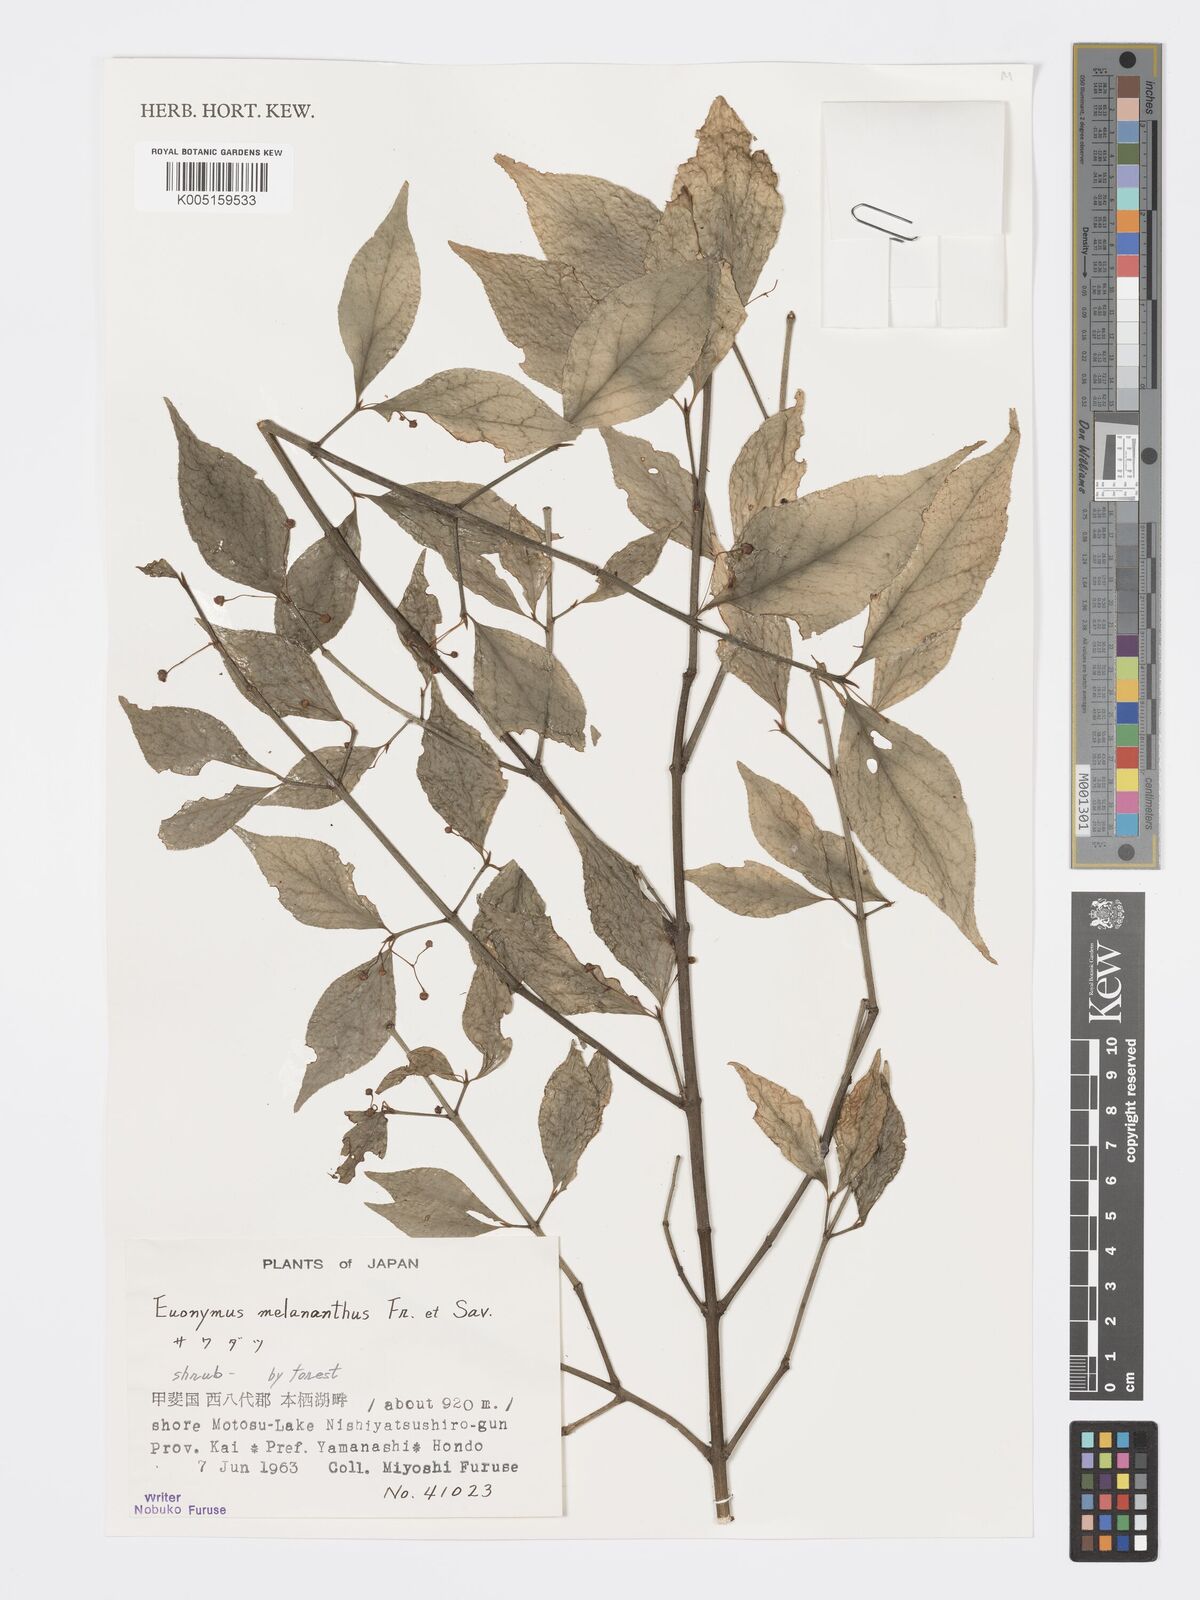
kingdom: Plantae
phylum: Tracheophyta
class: Magnoliopsida
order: Celastrales
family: Celastraceae
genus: Euonymus
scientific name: Euonymus melananthus
